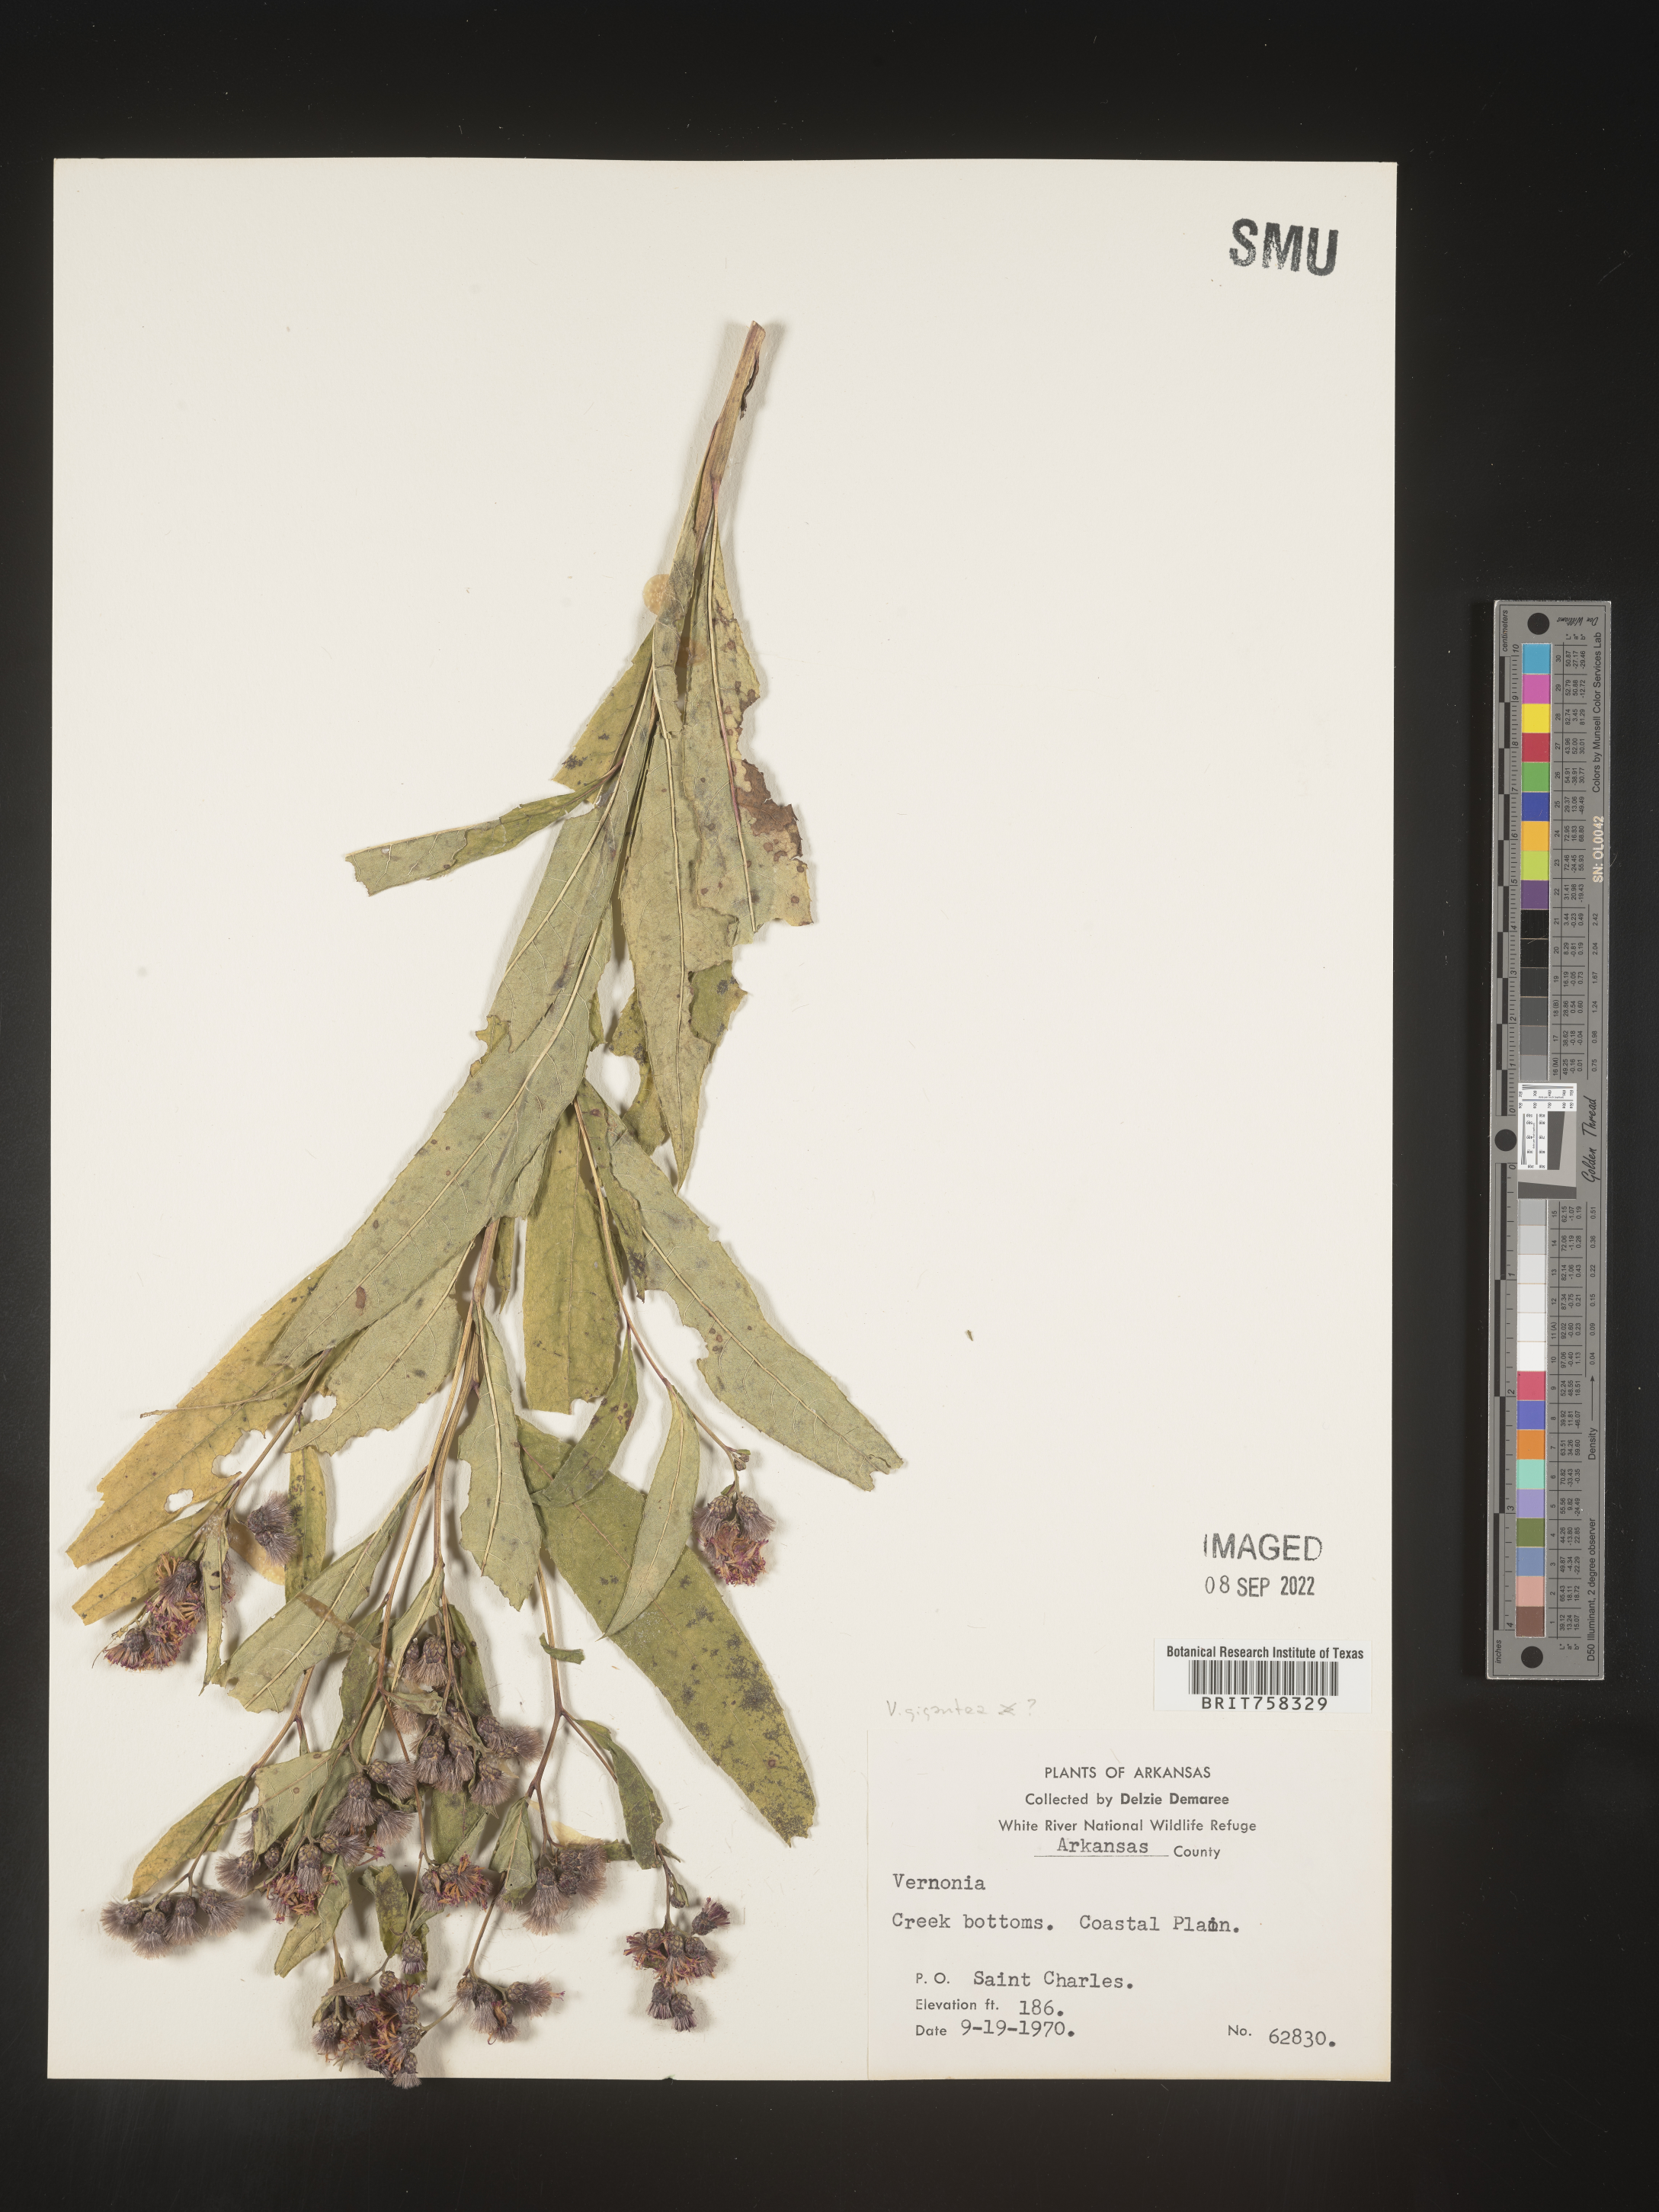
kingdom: Plantae
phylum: Tracheophyta
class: Magnoliopsida
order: Asterales
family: Asteraceae
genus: Vernonia
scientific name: Vernonia gigantea
